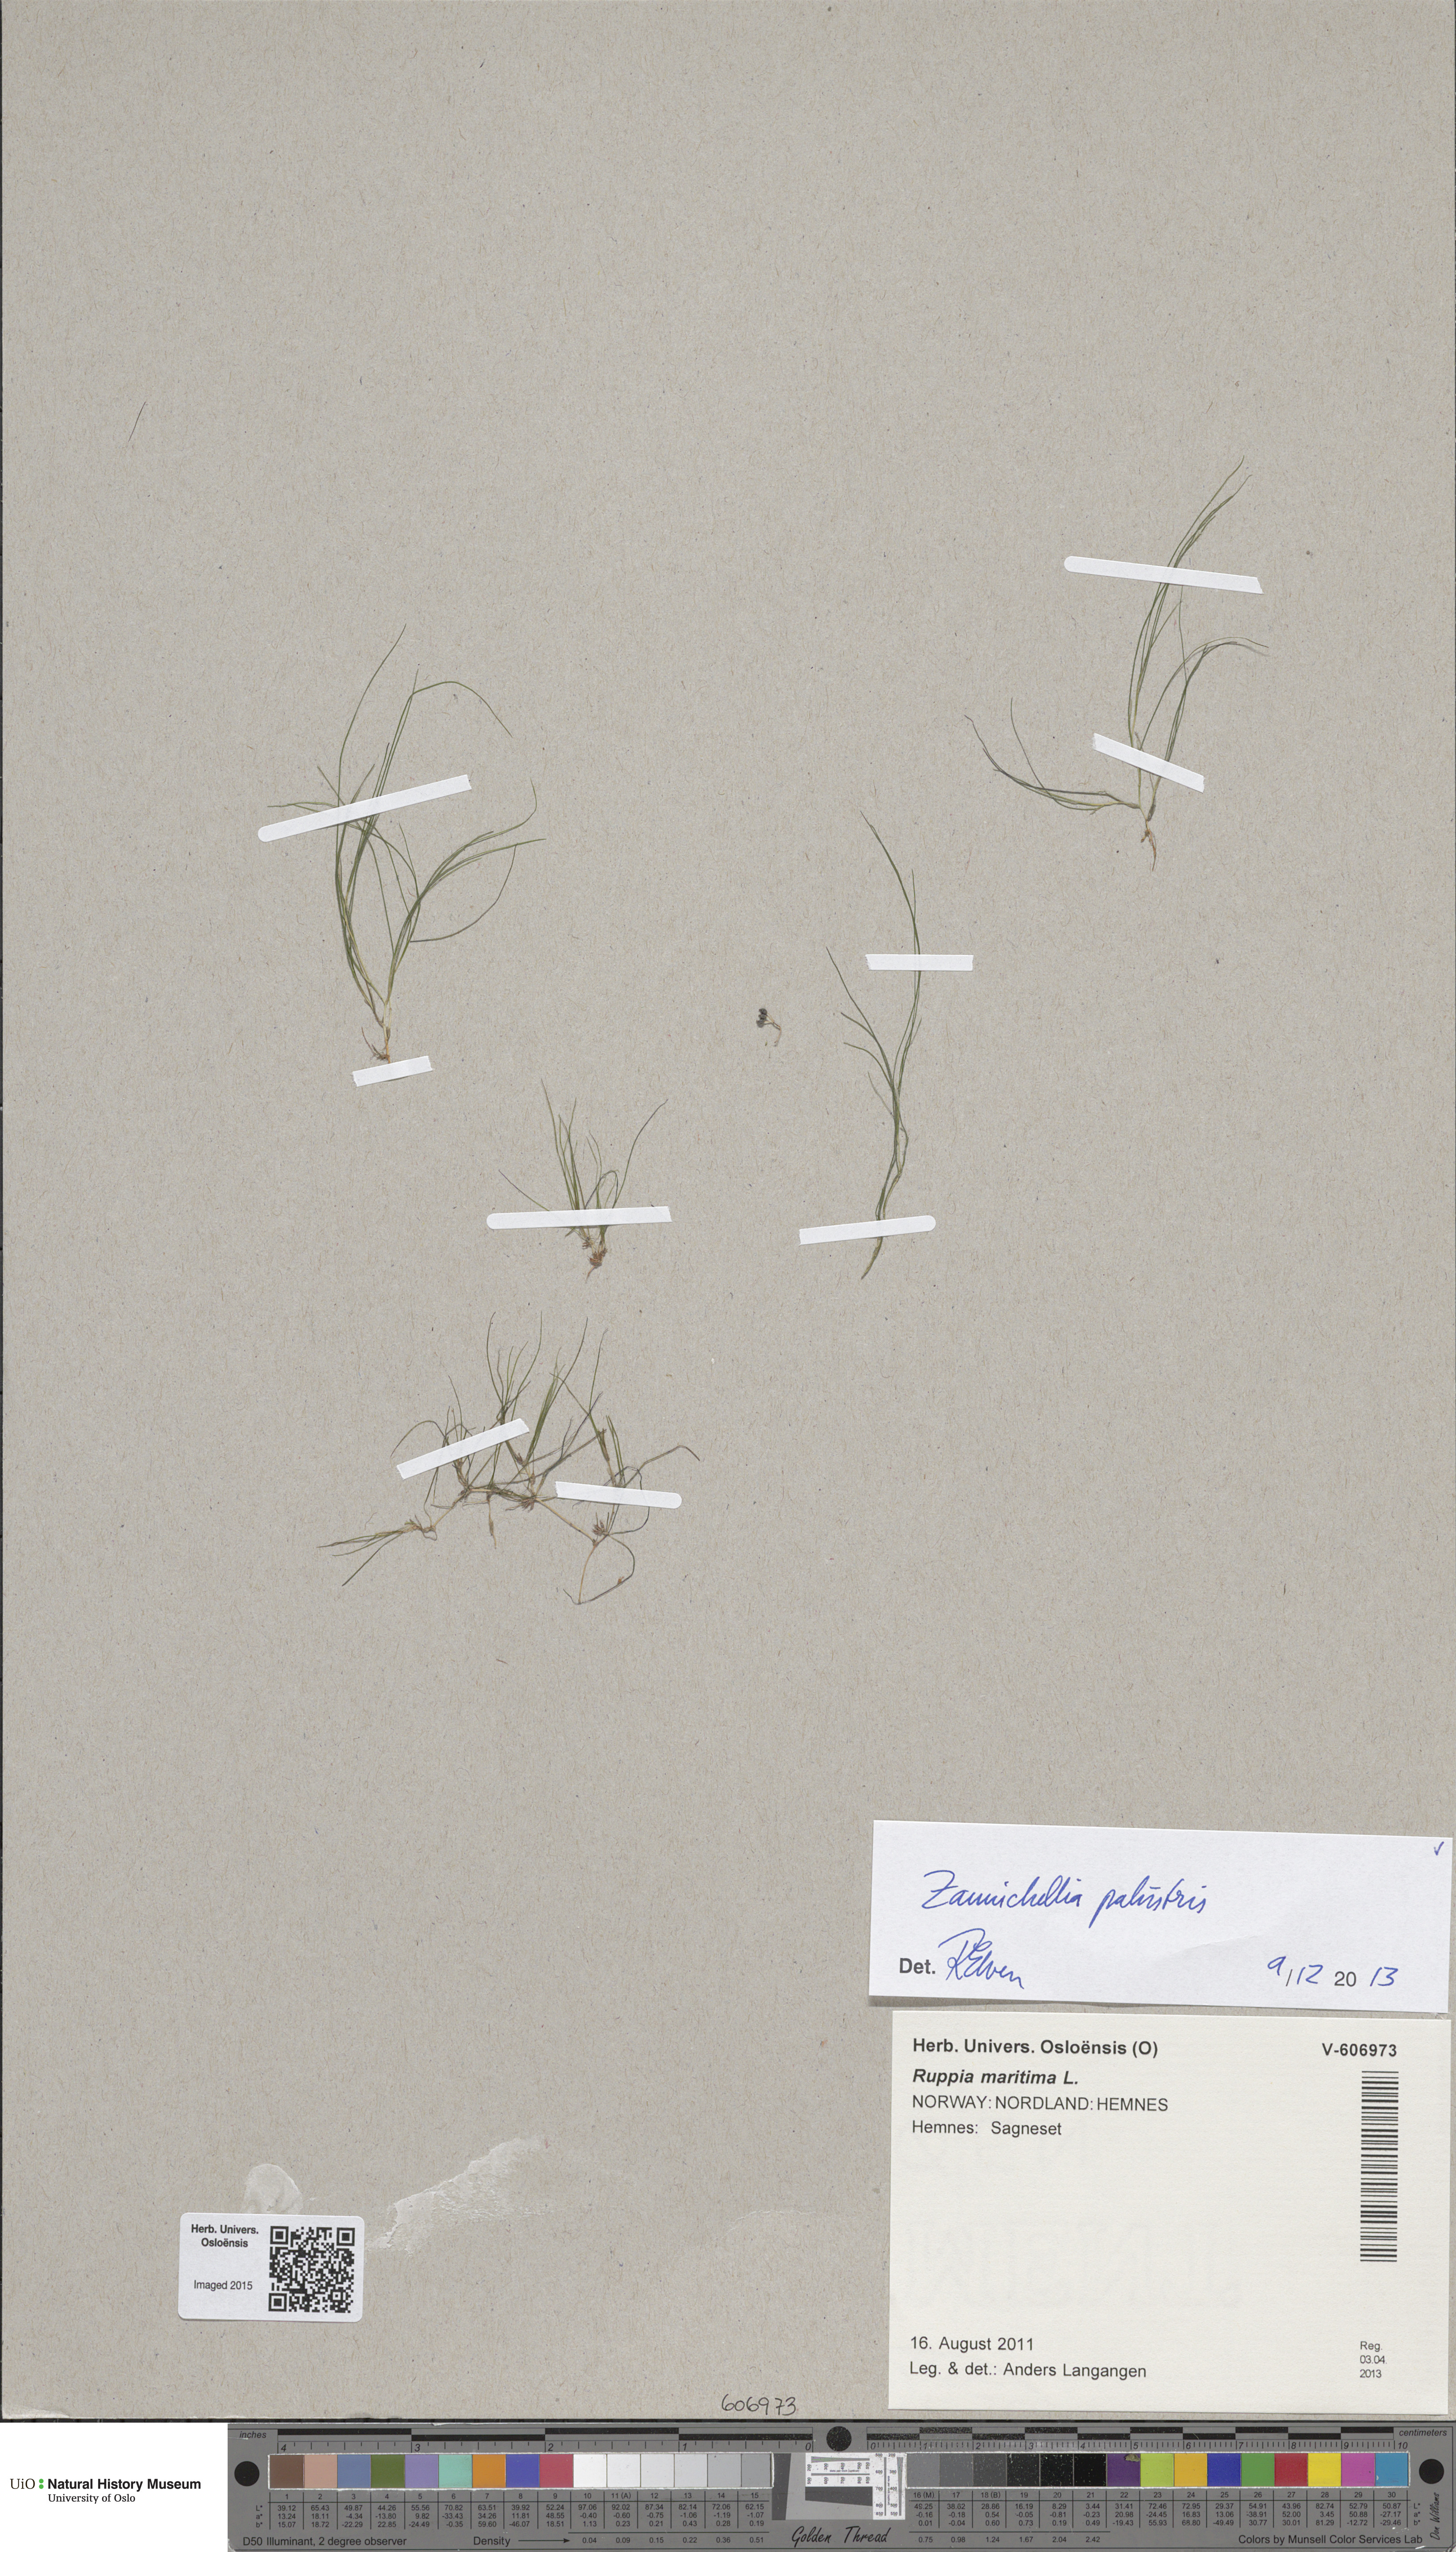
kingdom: Plantae
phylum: Tracheophyta
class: Liliopsida
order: Alismatales
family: Potamogetonaceae
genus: Zannichellia
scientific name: Zannichellia palustris
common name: Horned pondweed
